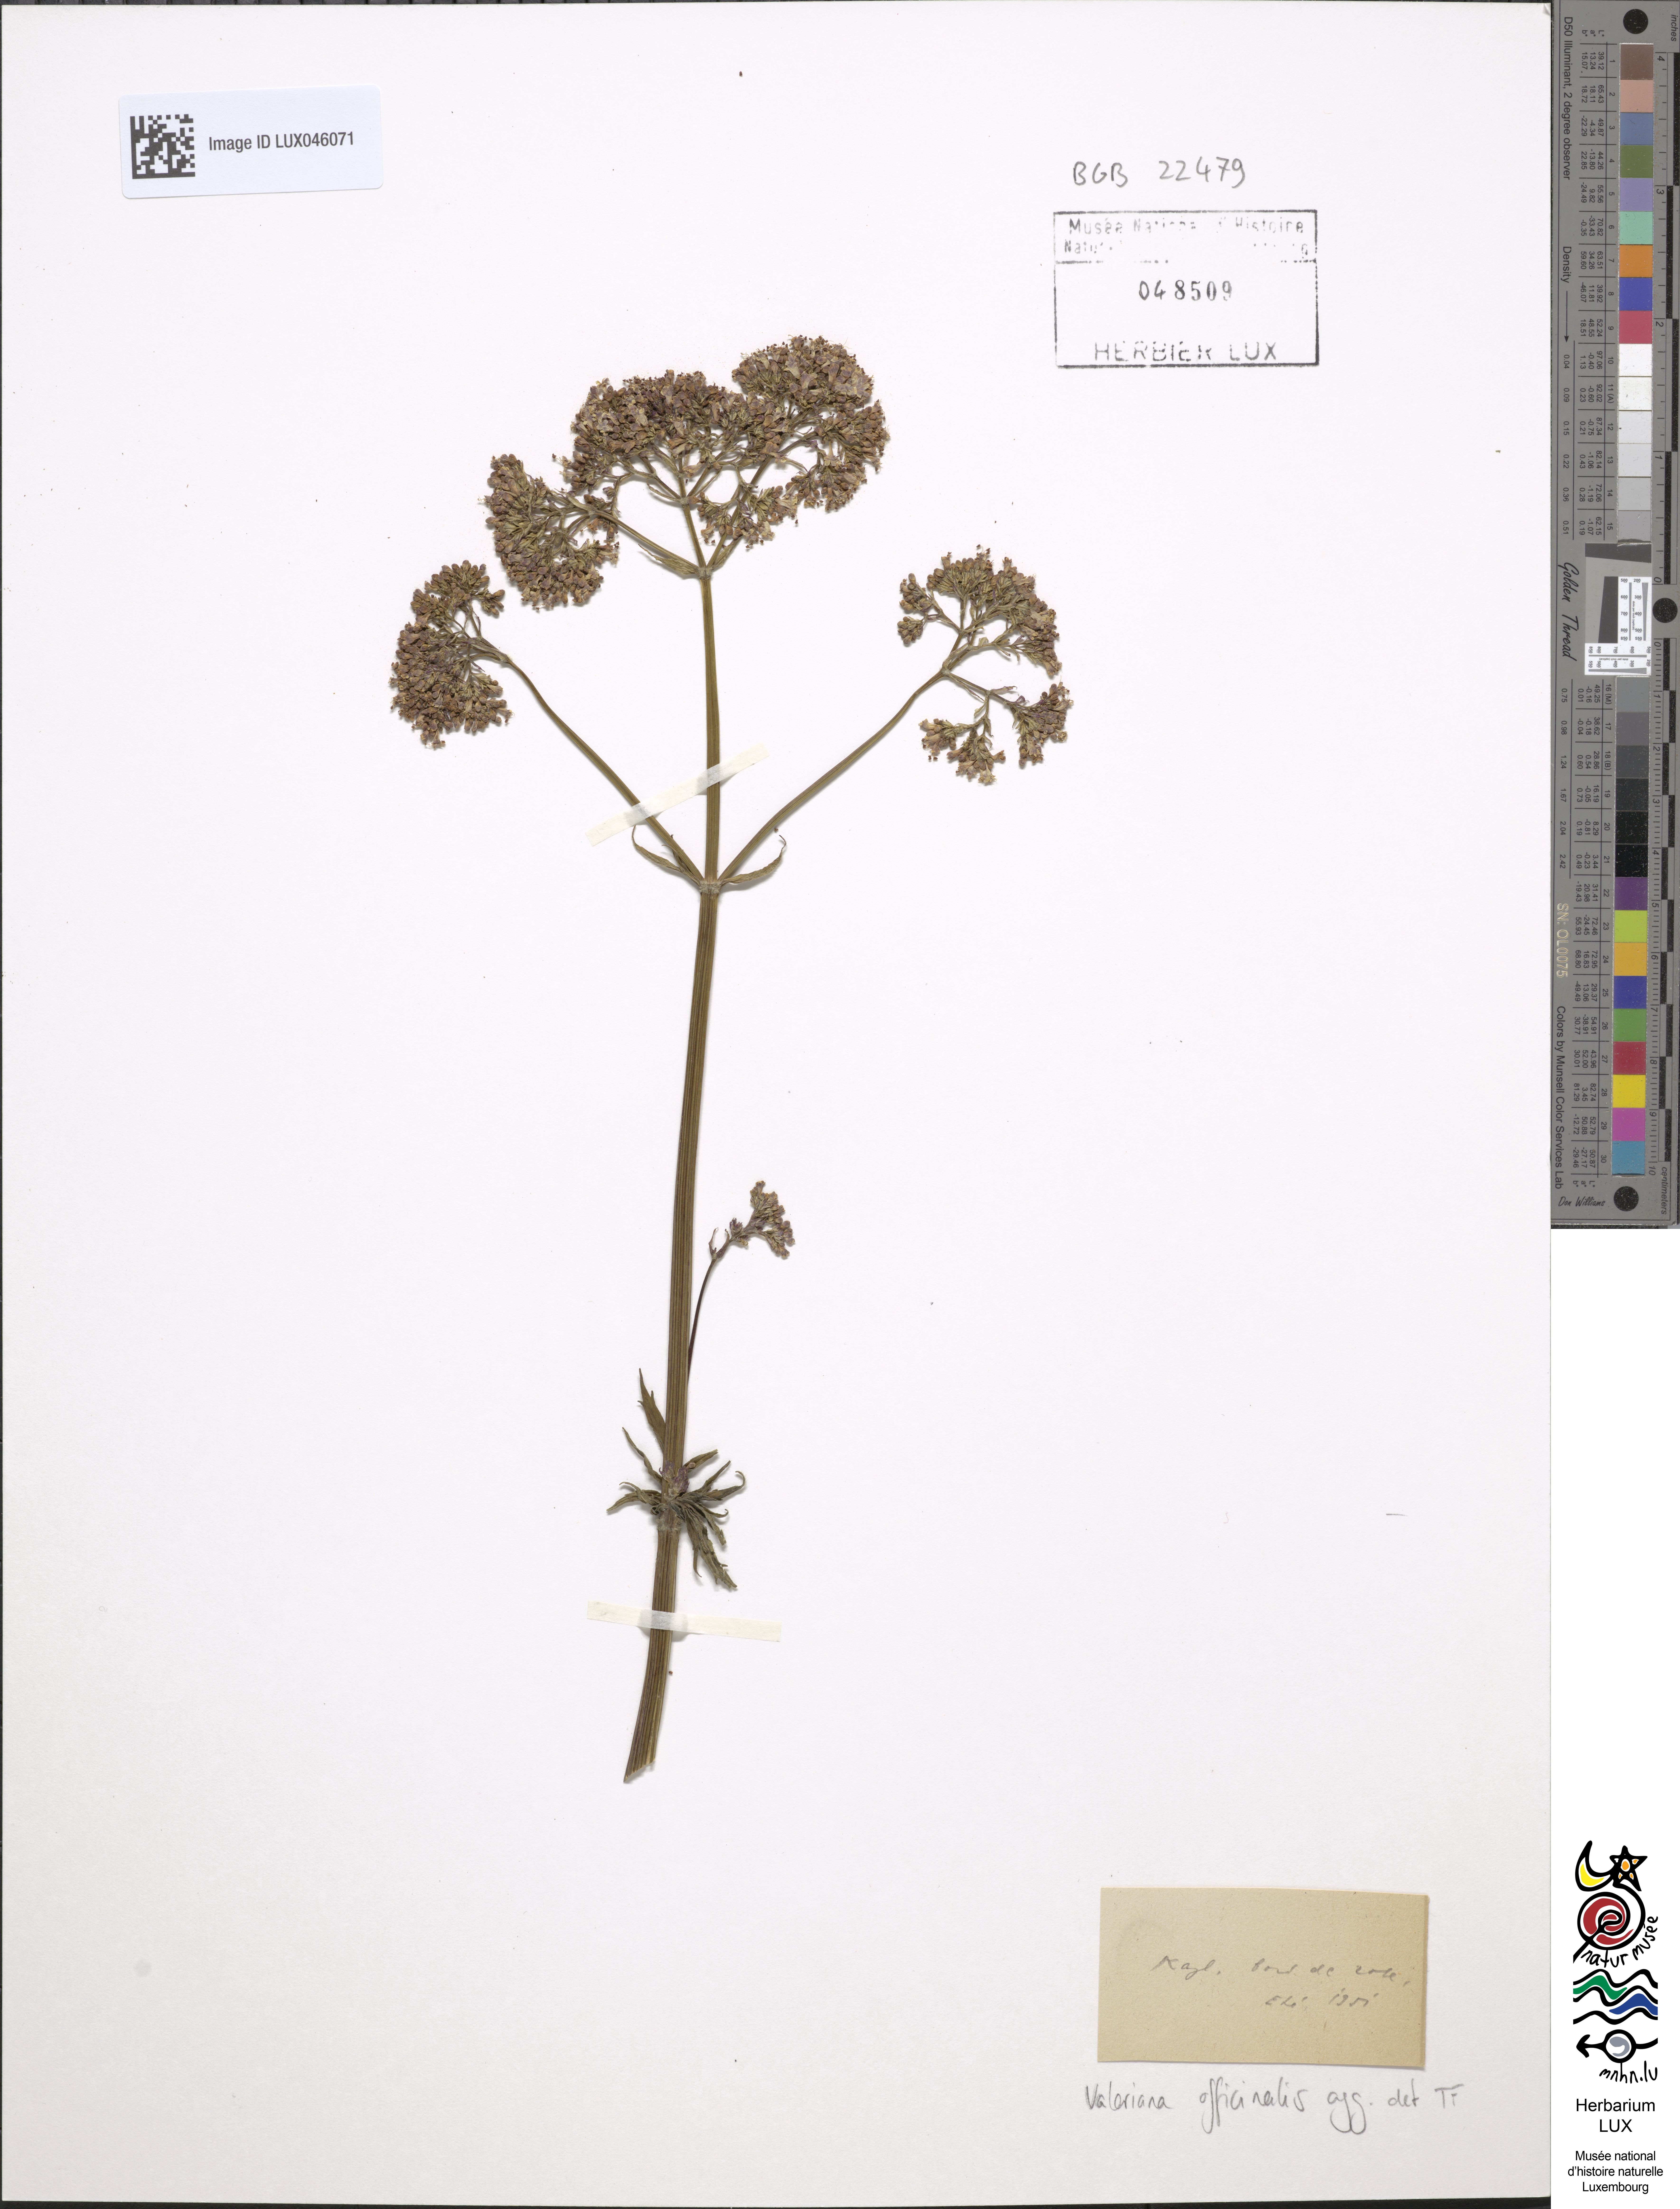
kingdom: Plantae
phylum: Tracheophyta
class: Magnoliopsida
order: Dipsacales
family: Caprifoliaceae
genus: Valeriana
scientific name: Valeriana officinalis
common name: Common valerian
